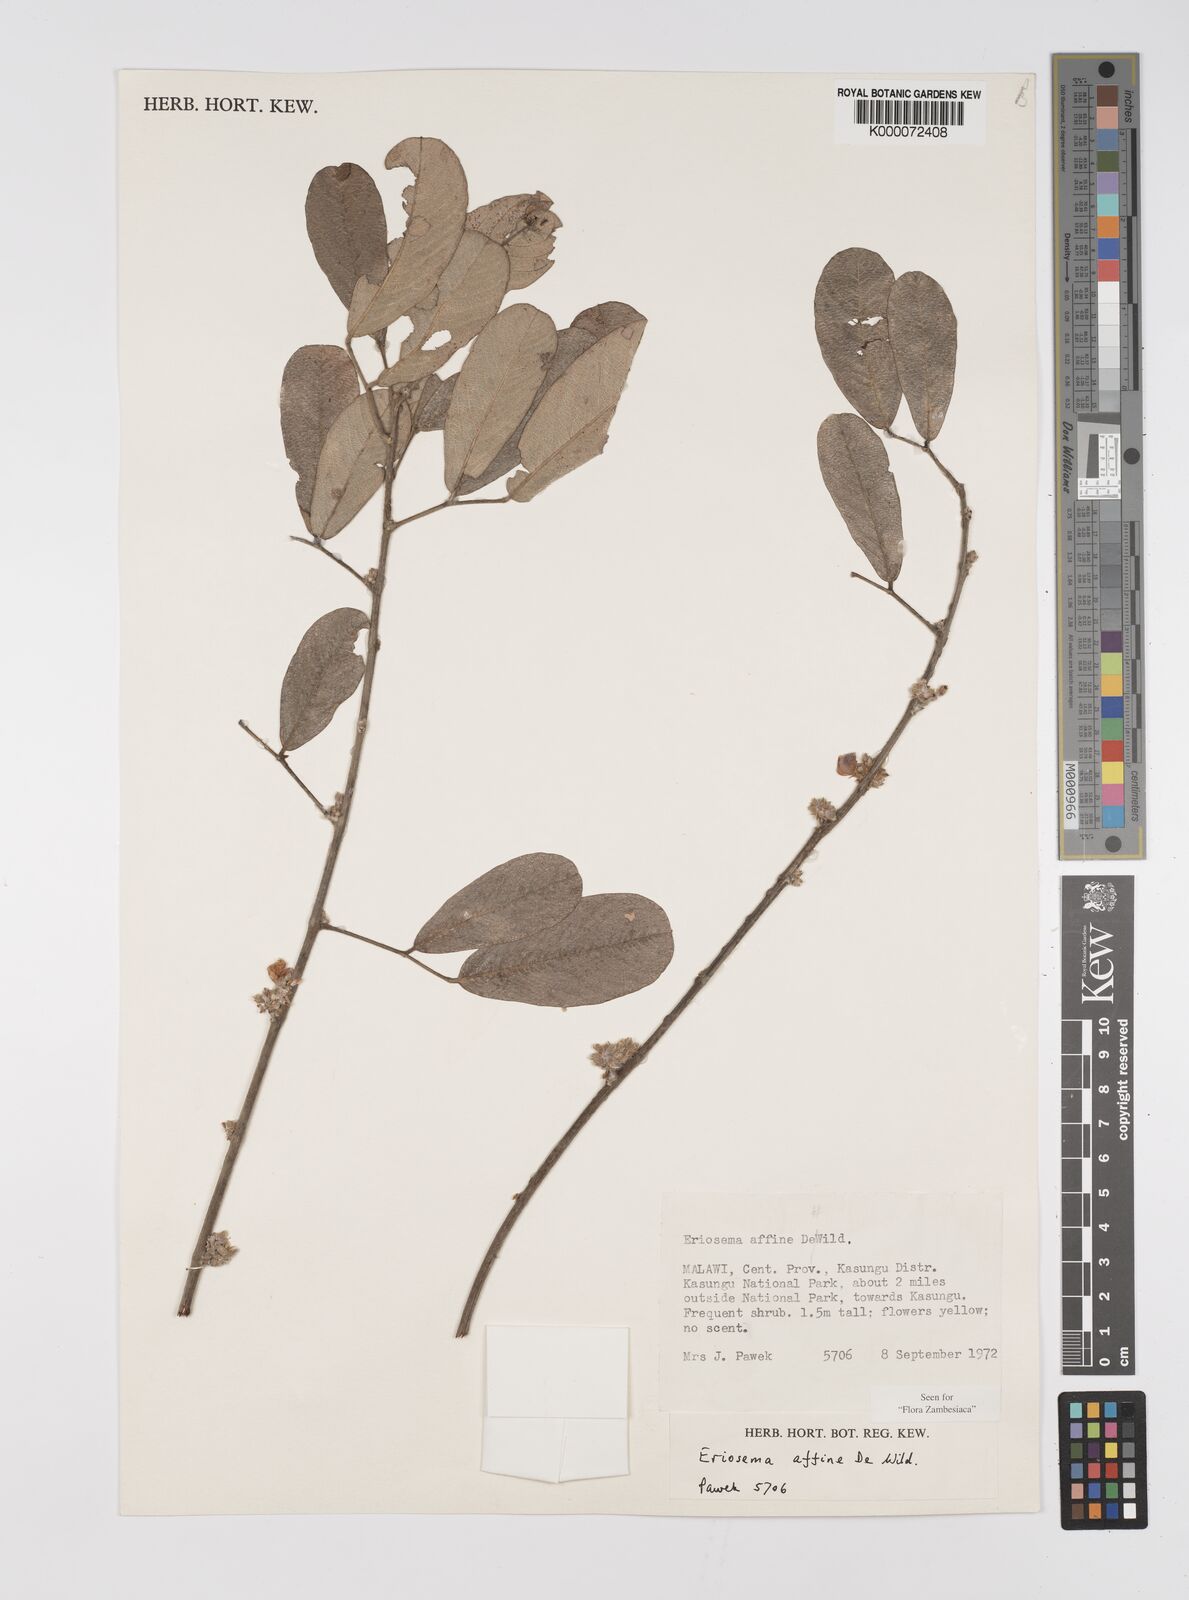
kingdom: Plantae
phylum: Tracheophyta
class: Magnoliopsida
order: Fabales
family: Fabaceae
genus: Eriosema
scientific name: Eriosema affine
